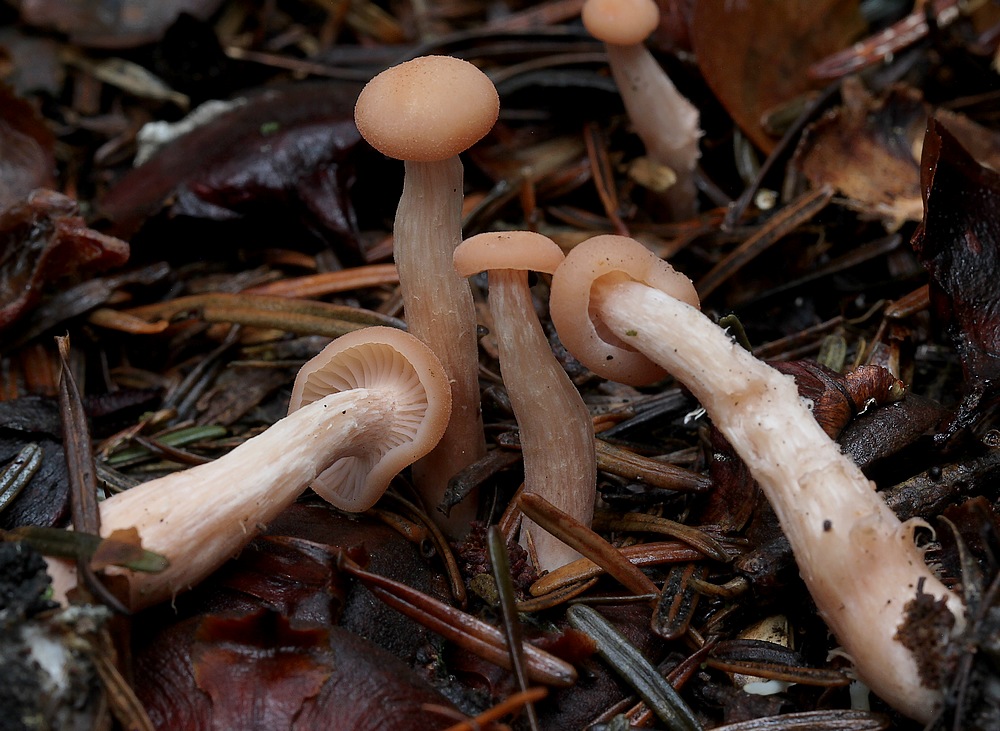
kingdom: Fungi
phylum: Basidiomycota
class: Agaricomycetes
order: Agaricales
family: Hydnangiaceae
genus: Laccaria
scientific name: Laccaria laccata
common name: rød ametysthat
